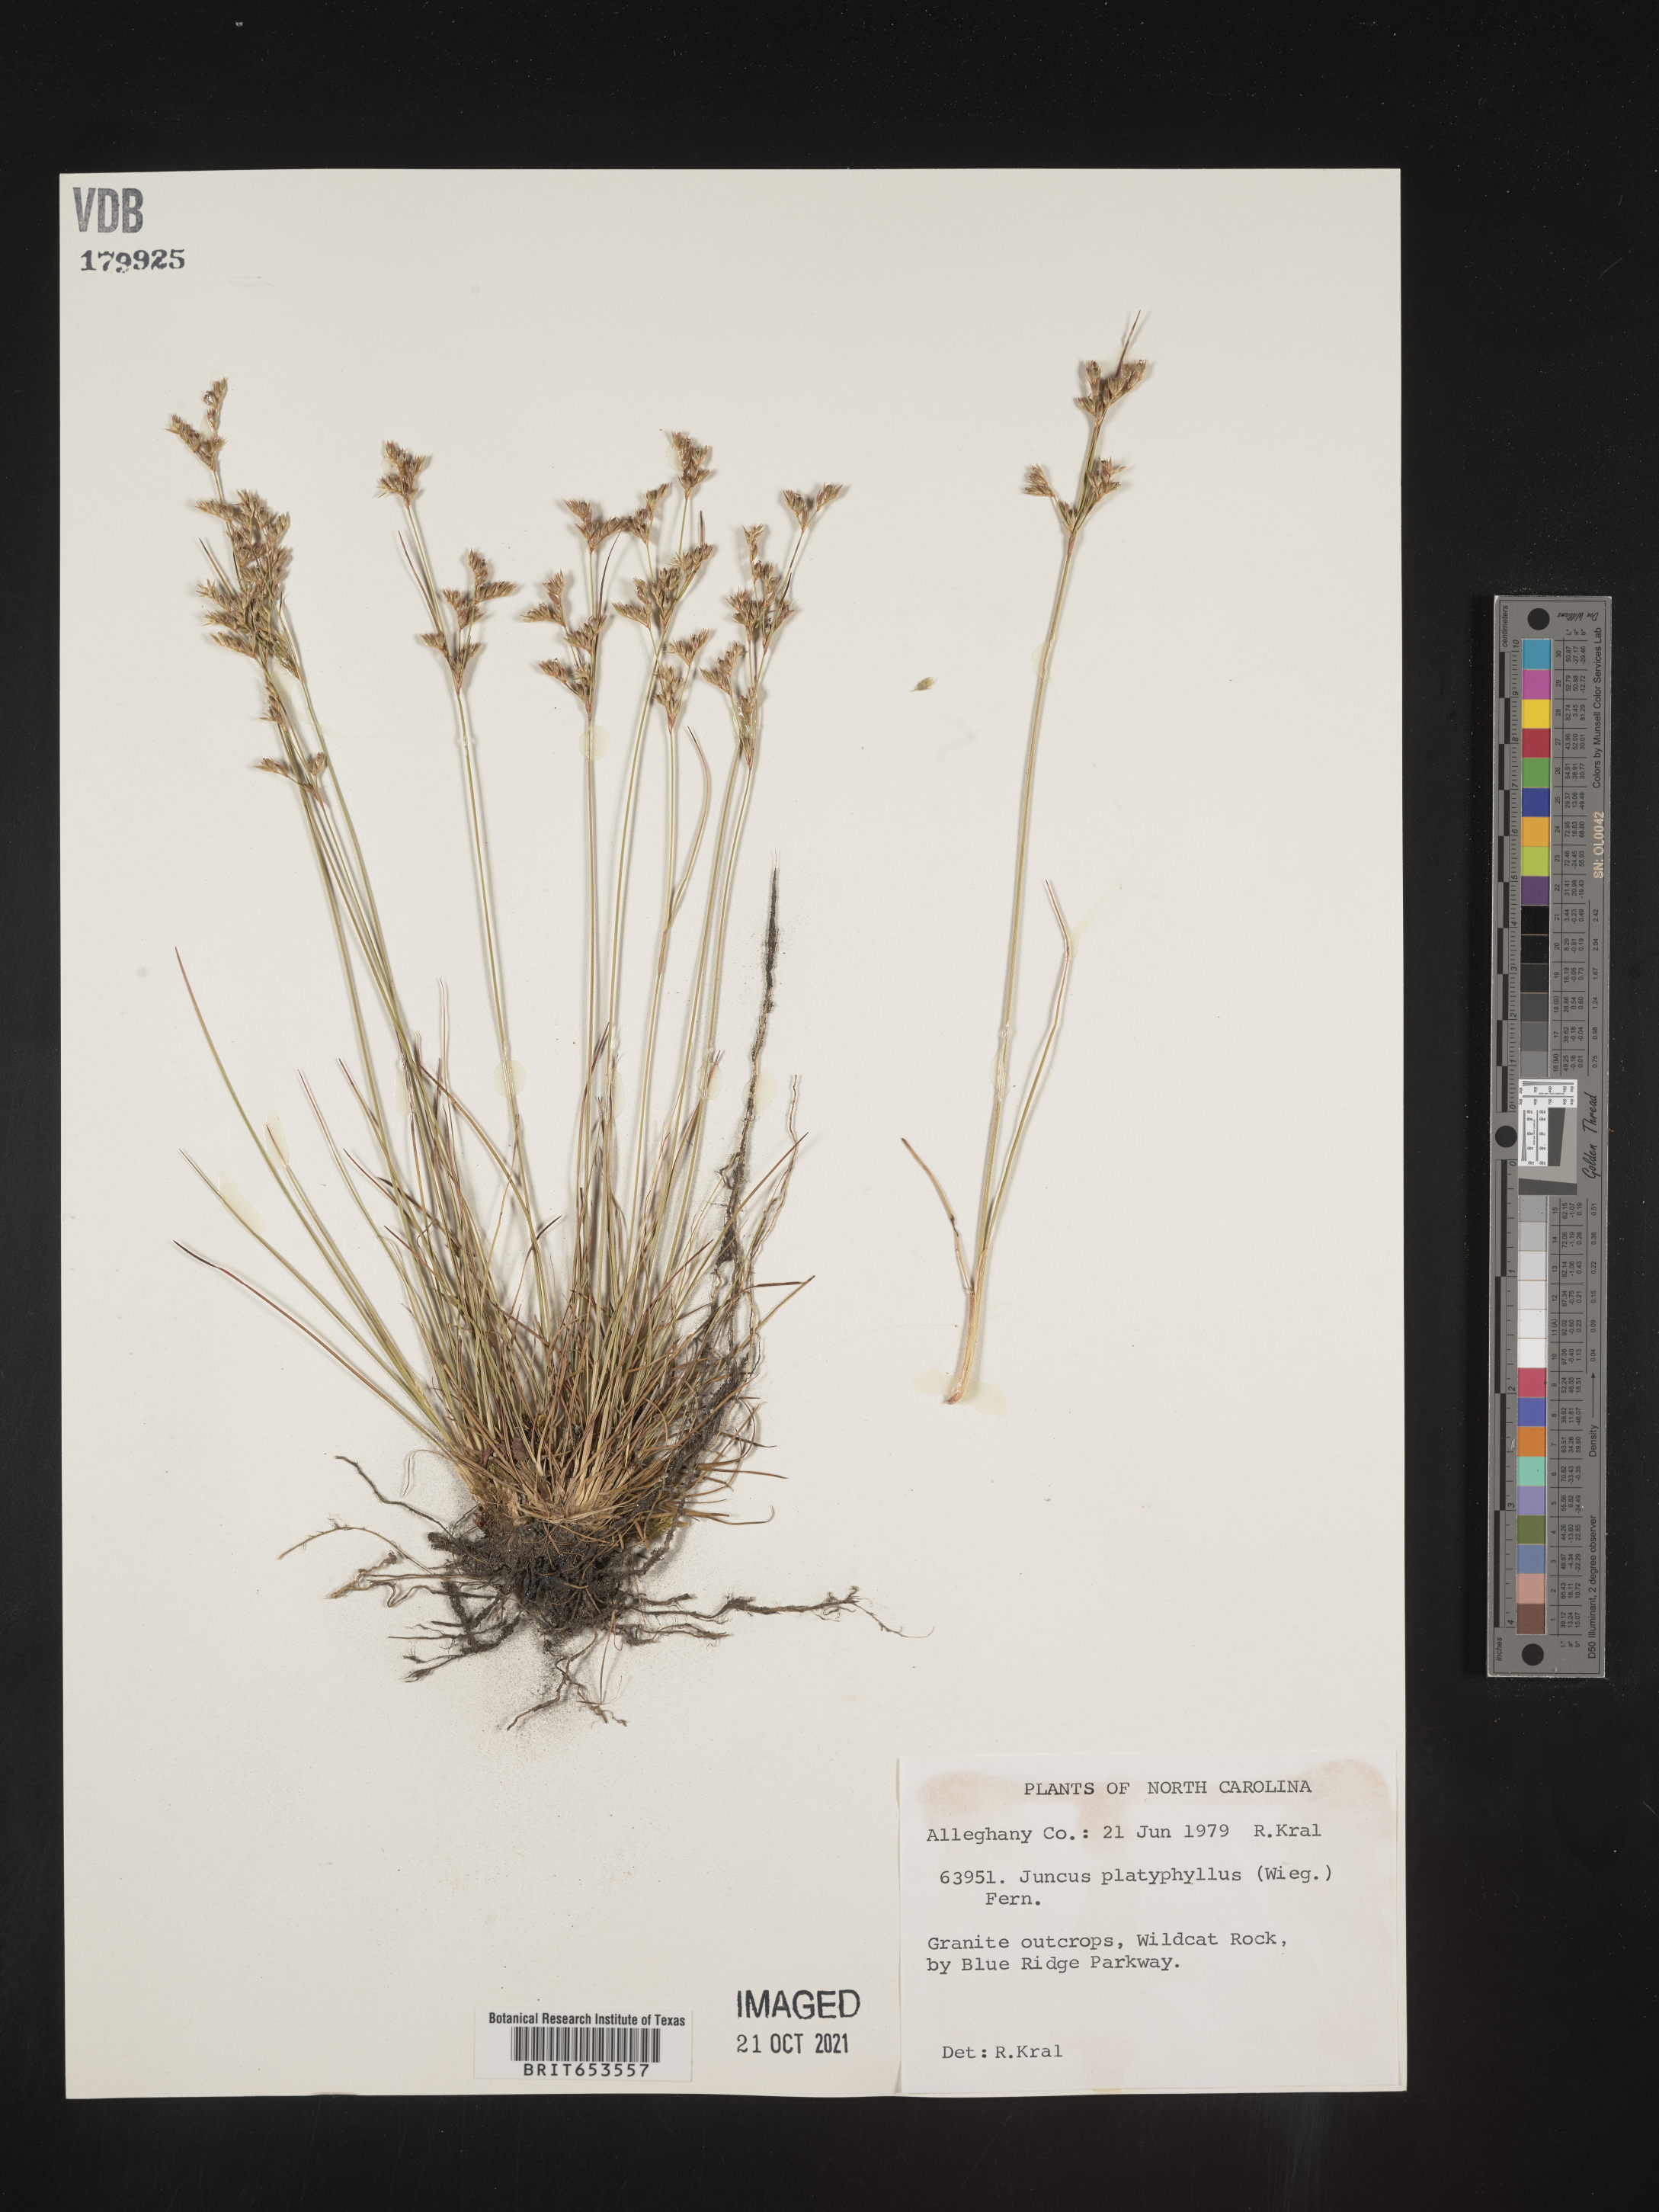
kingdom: Plantae
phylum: Tracheophyta
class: Liliopsida
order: Poales
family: Juncaceae
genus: Juncus
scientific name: Juncus dichotomus
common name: Forked rush
